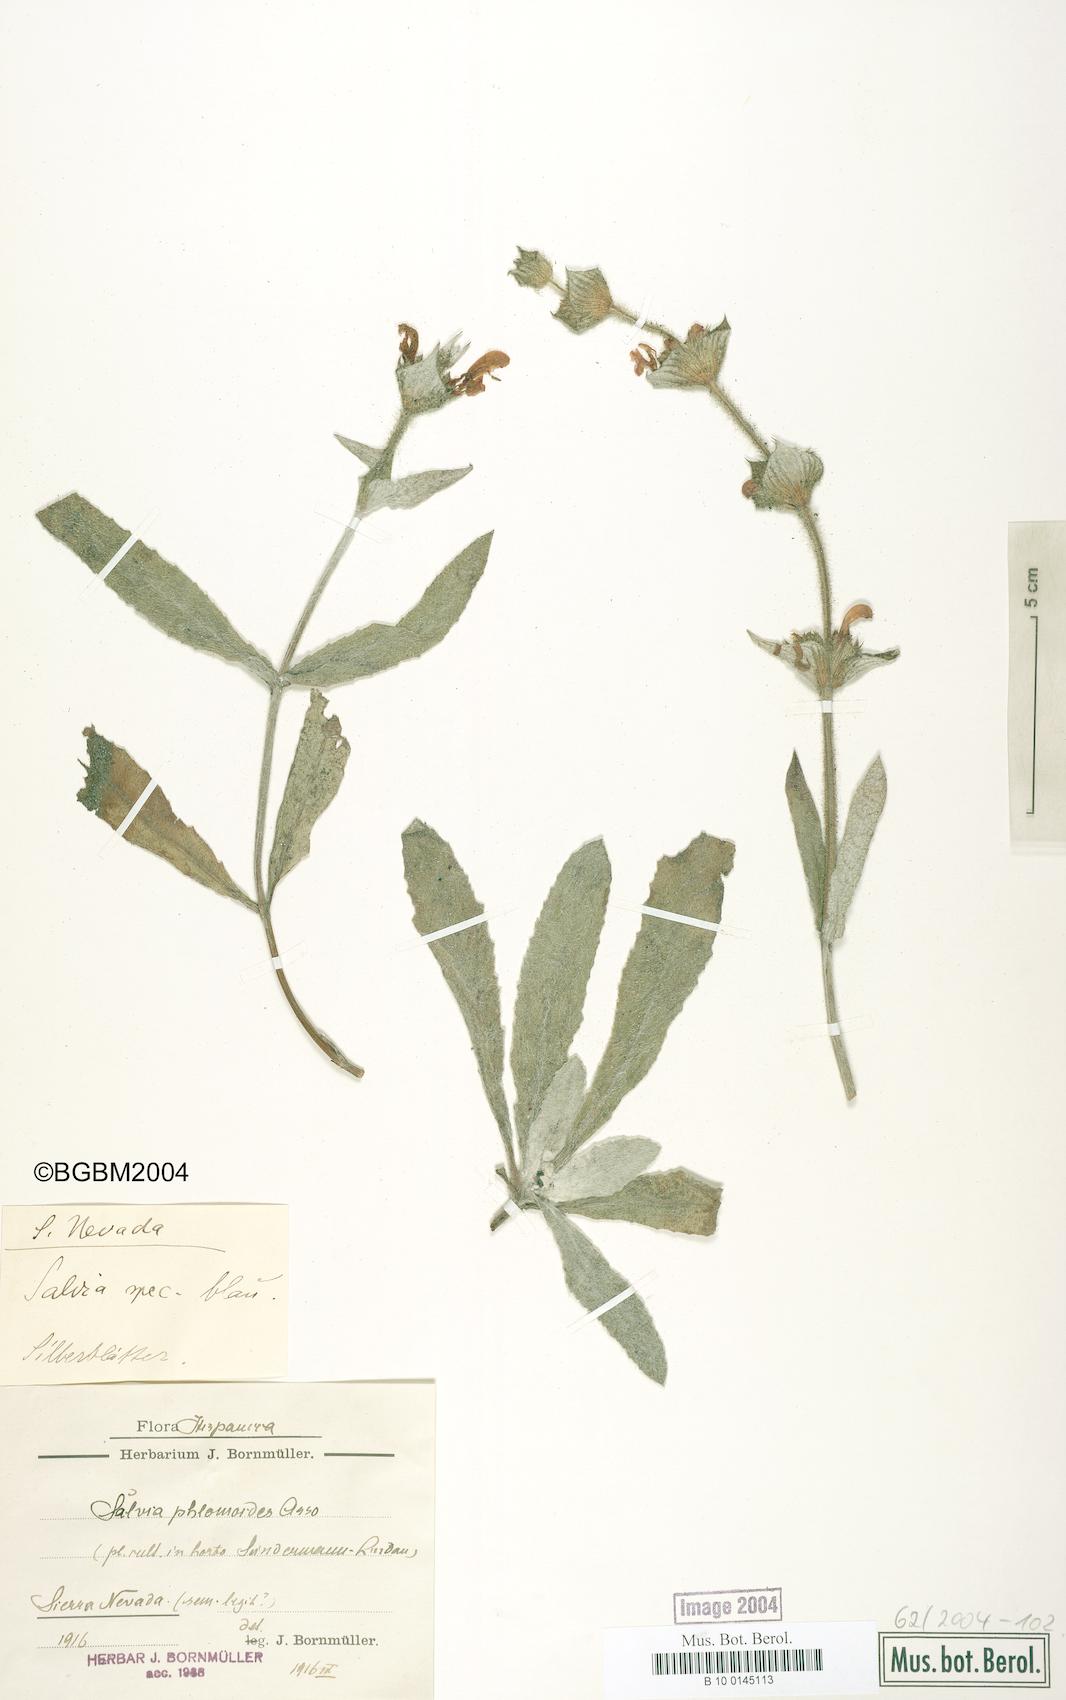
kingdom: Plantae
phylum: Tracheophyta
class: Magnoliopsida
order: Lamiales
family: Lamiaceae
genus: Salvia
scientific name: Salvia
